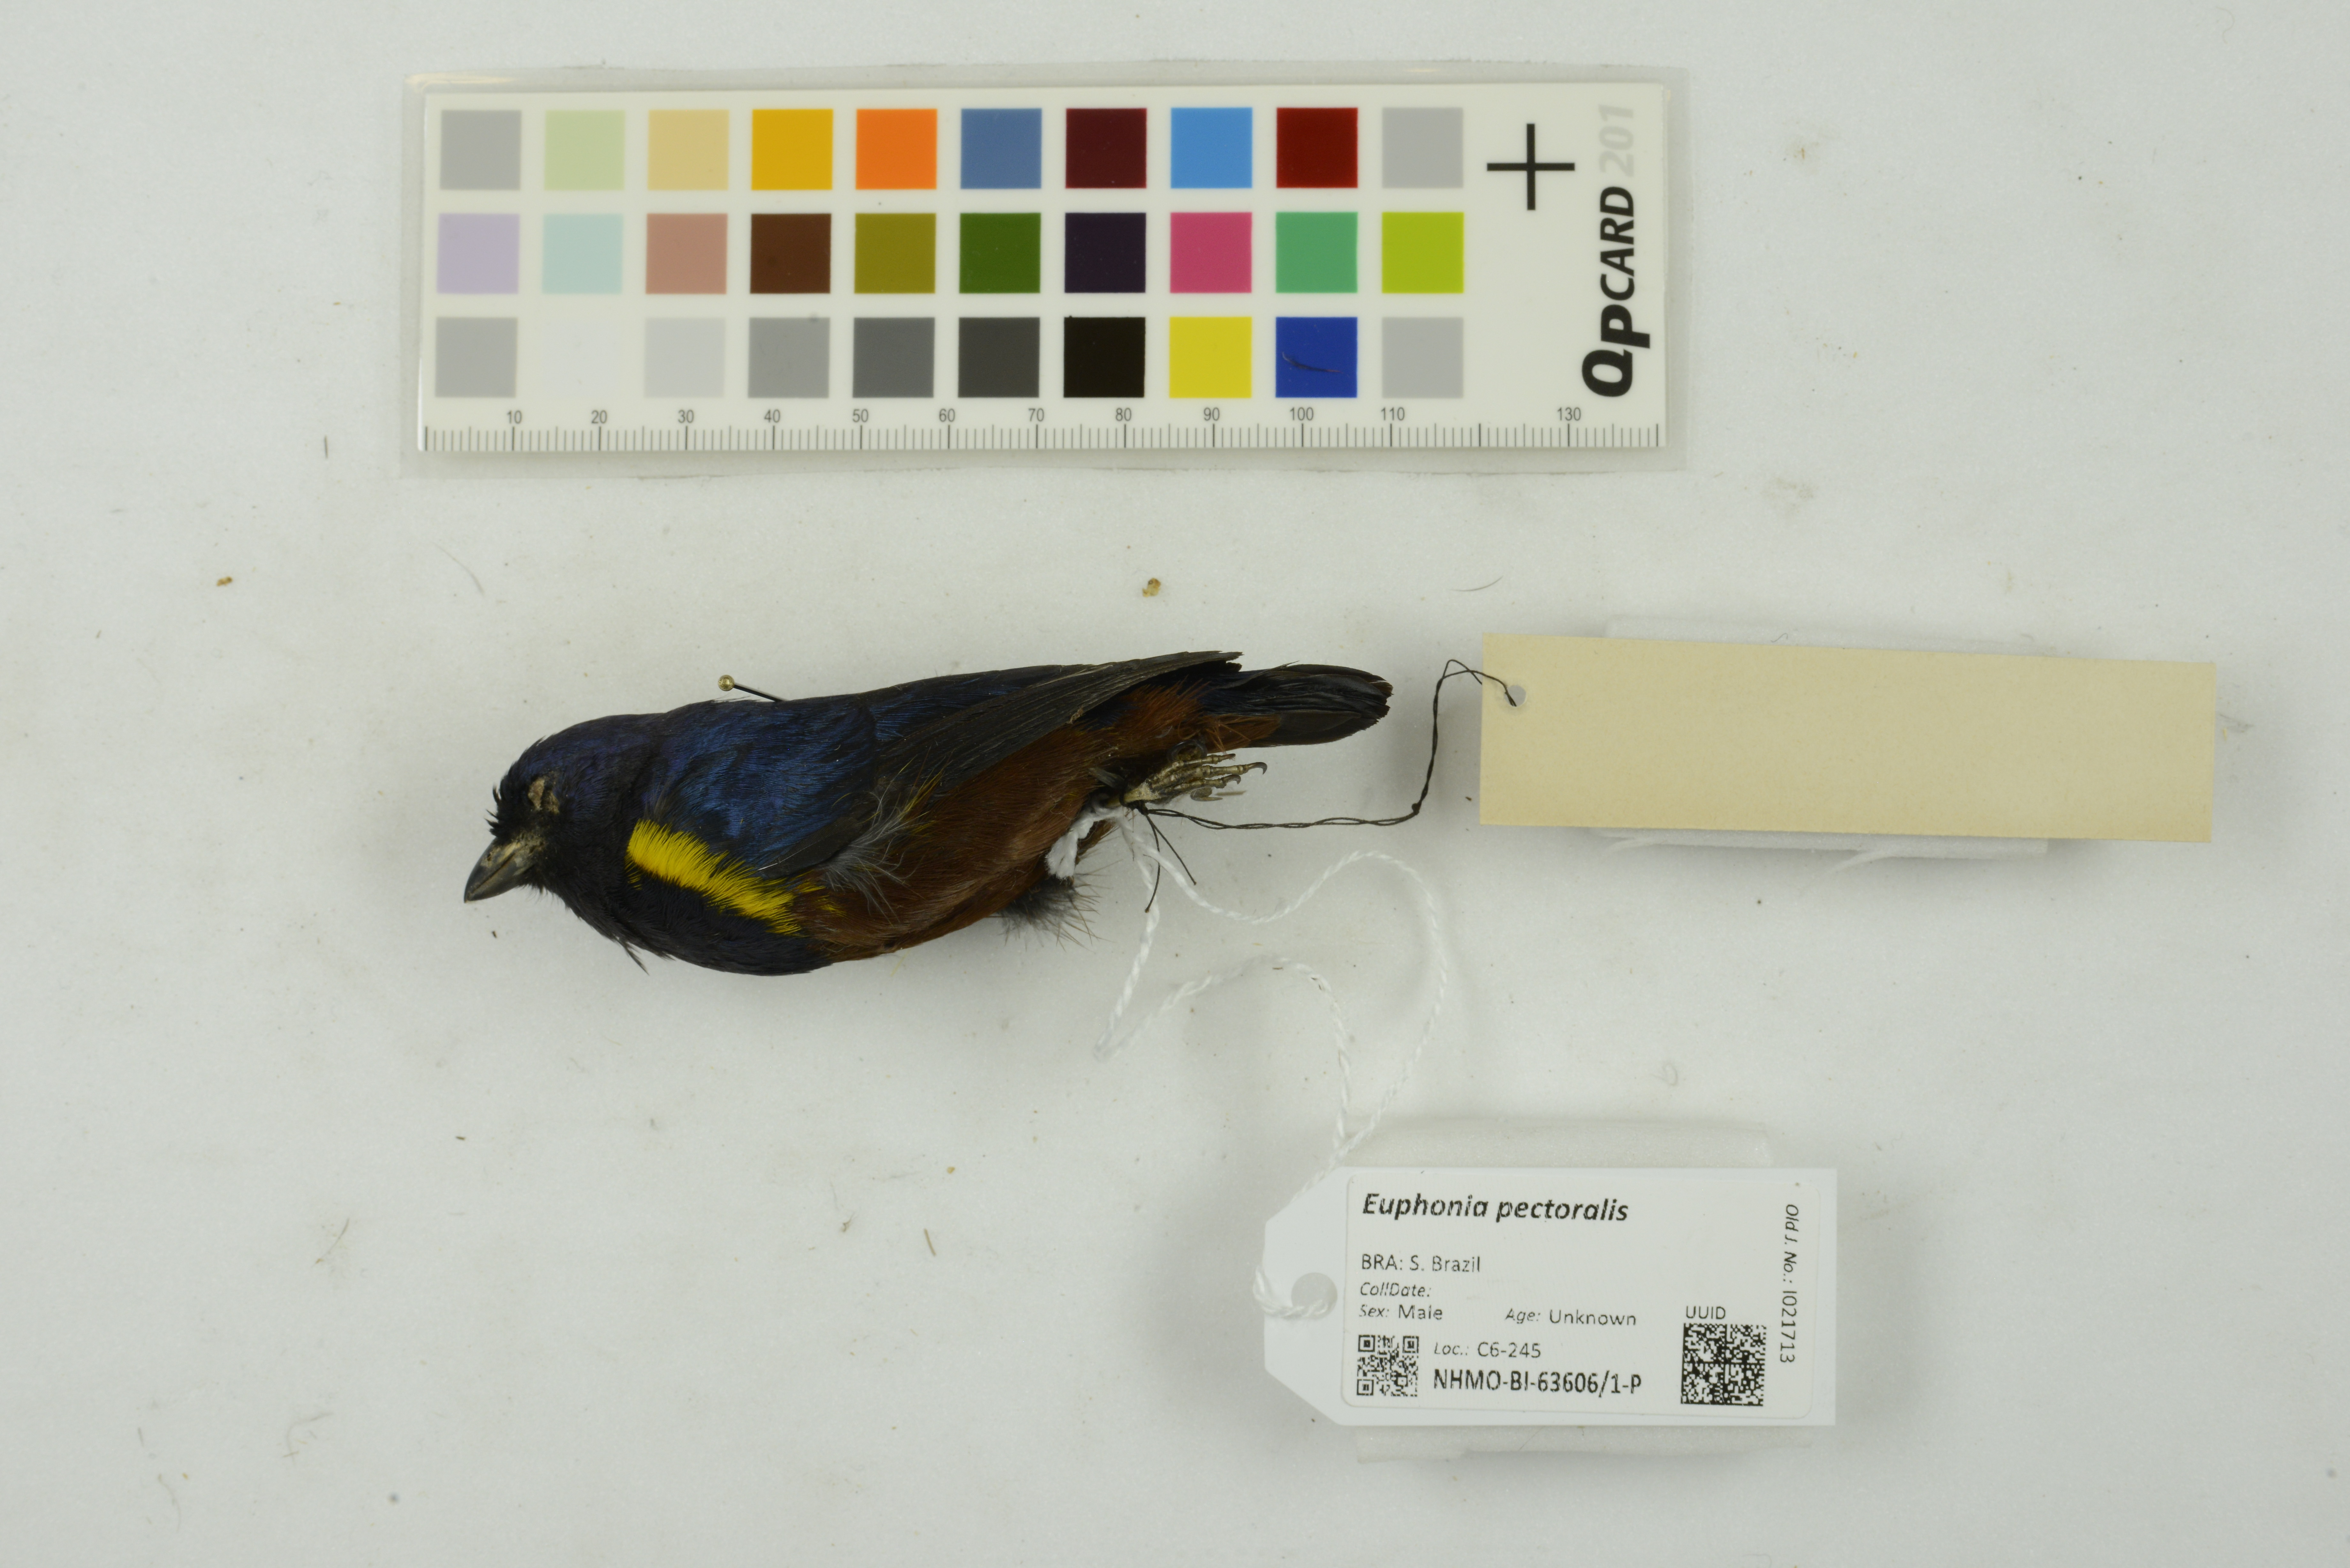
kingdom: Animalia
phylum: Chordata
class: Aves
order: Passeriformes
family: Fringillidae
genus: Euphonia
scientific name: Euphonia pectoralis
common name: Chestnut-bellied euphonia
